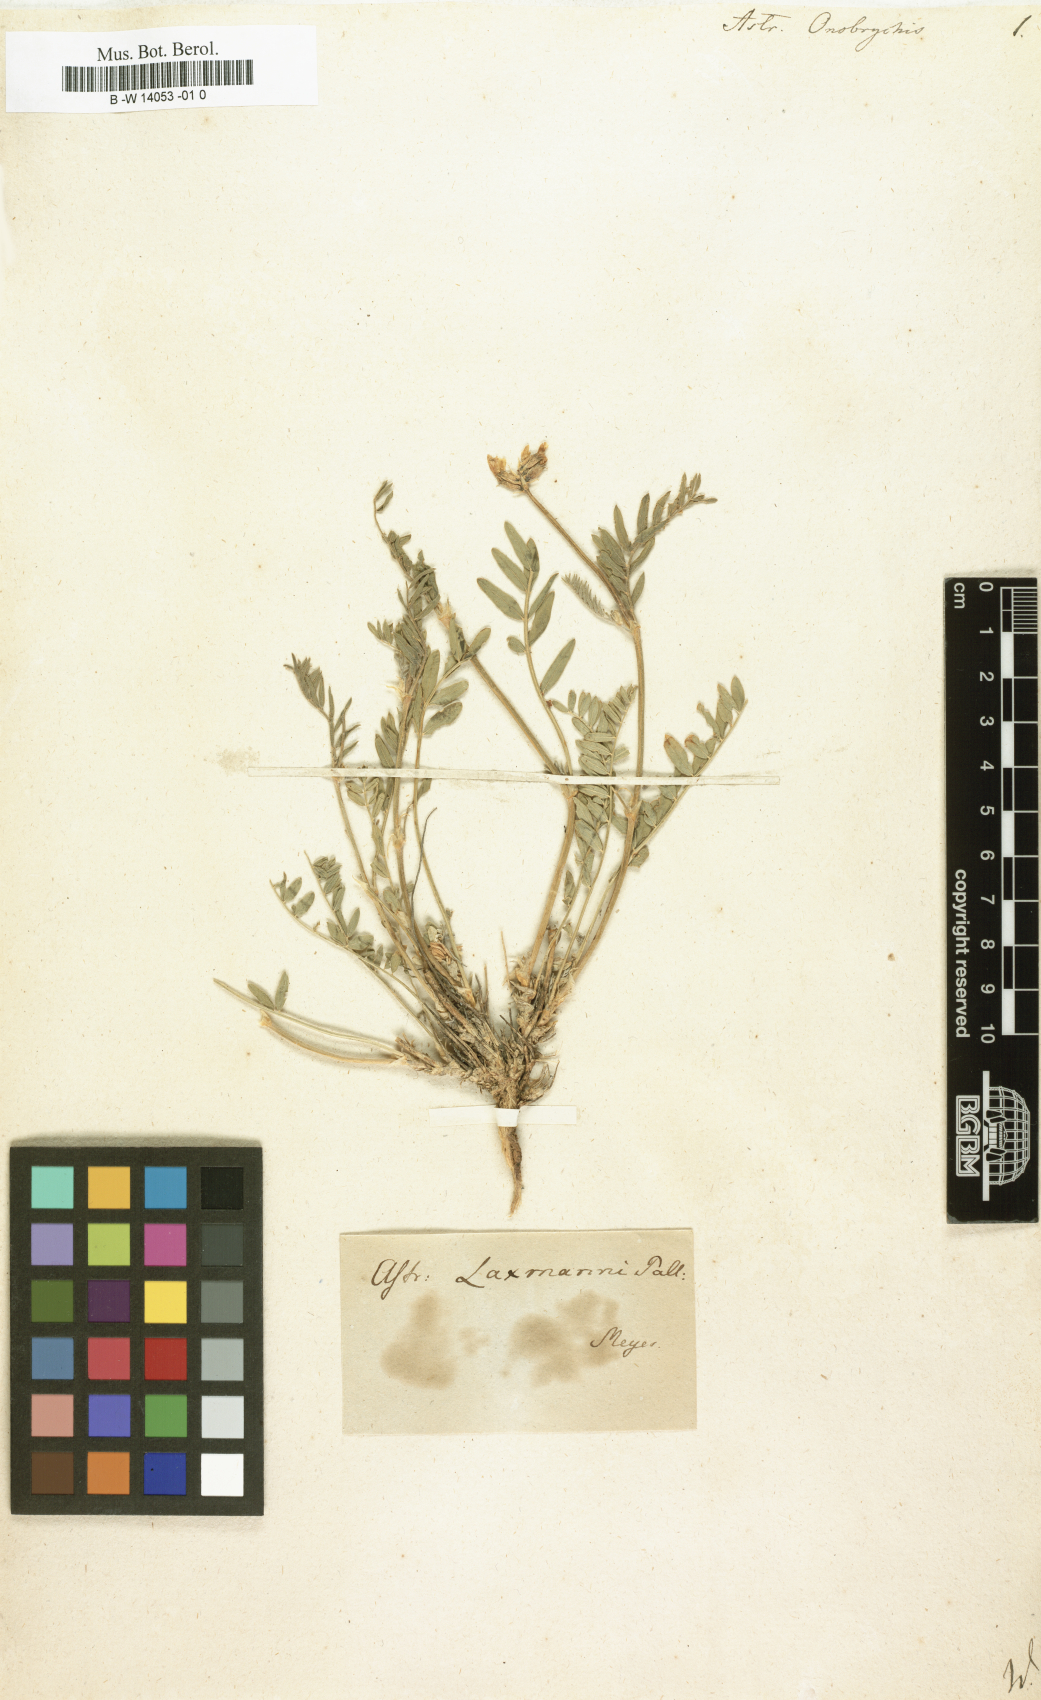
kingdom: Plantae
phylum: Tracheophyta
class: Magnoliopsida
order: Fabales
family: Fabaceae
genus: Astragalus
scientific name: Astragalus onobrychis
